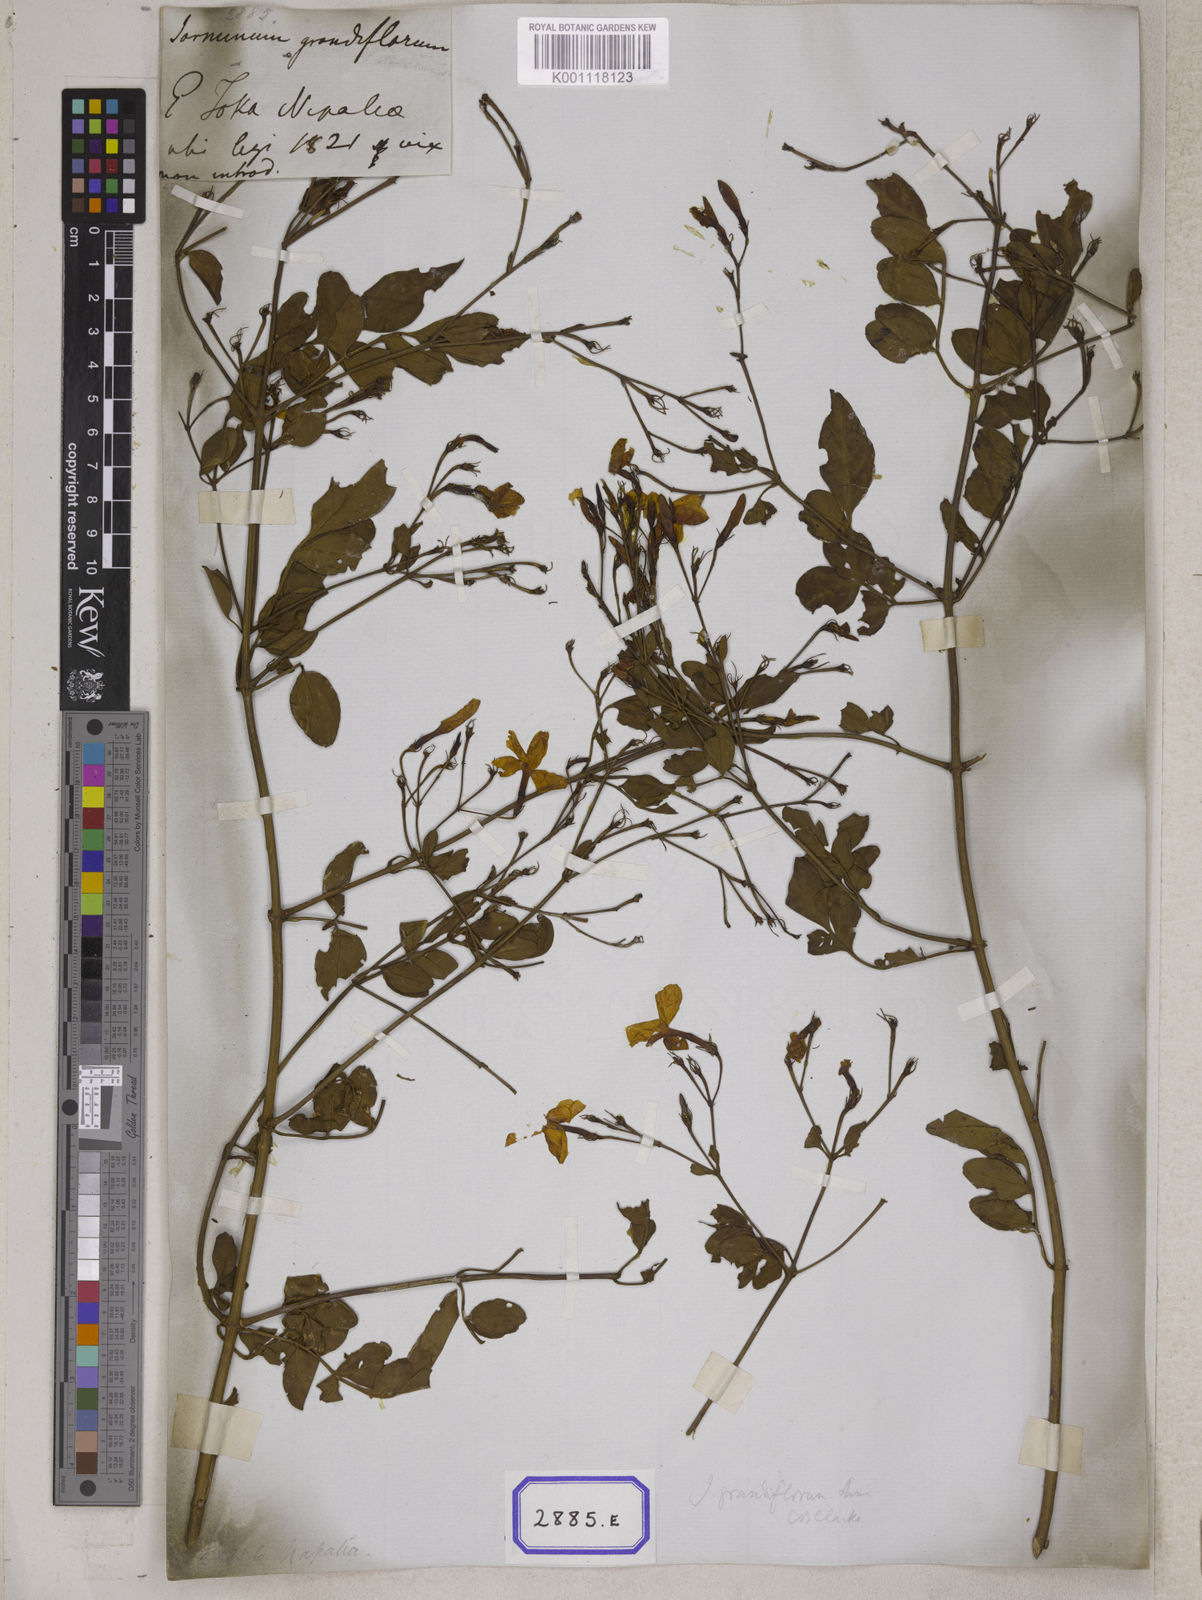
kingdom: Plantae
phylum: Tracheophyta
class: Magnoliopsida
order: Lamiales
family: Oleaceae
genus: Jasminum
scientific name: Jasminum grandiflorum
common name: Catalonian jasmine
